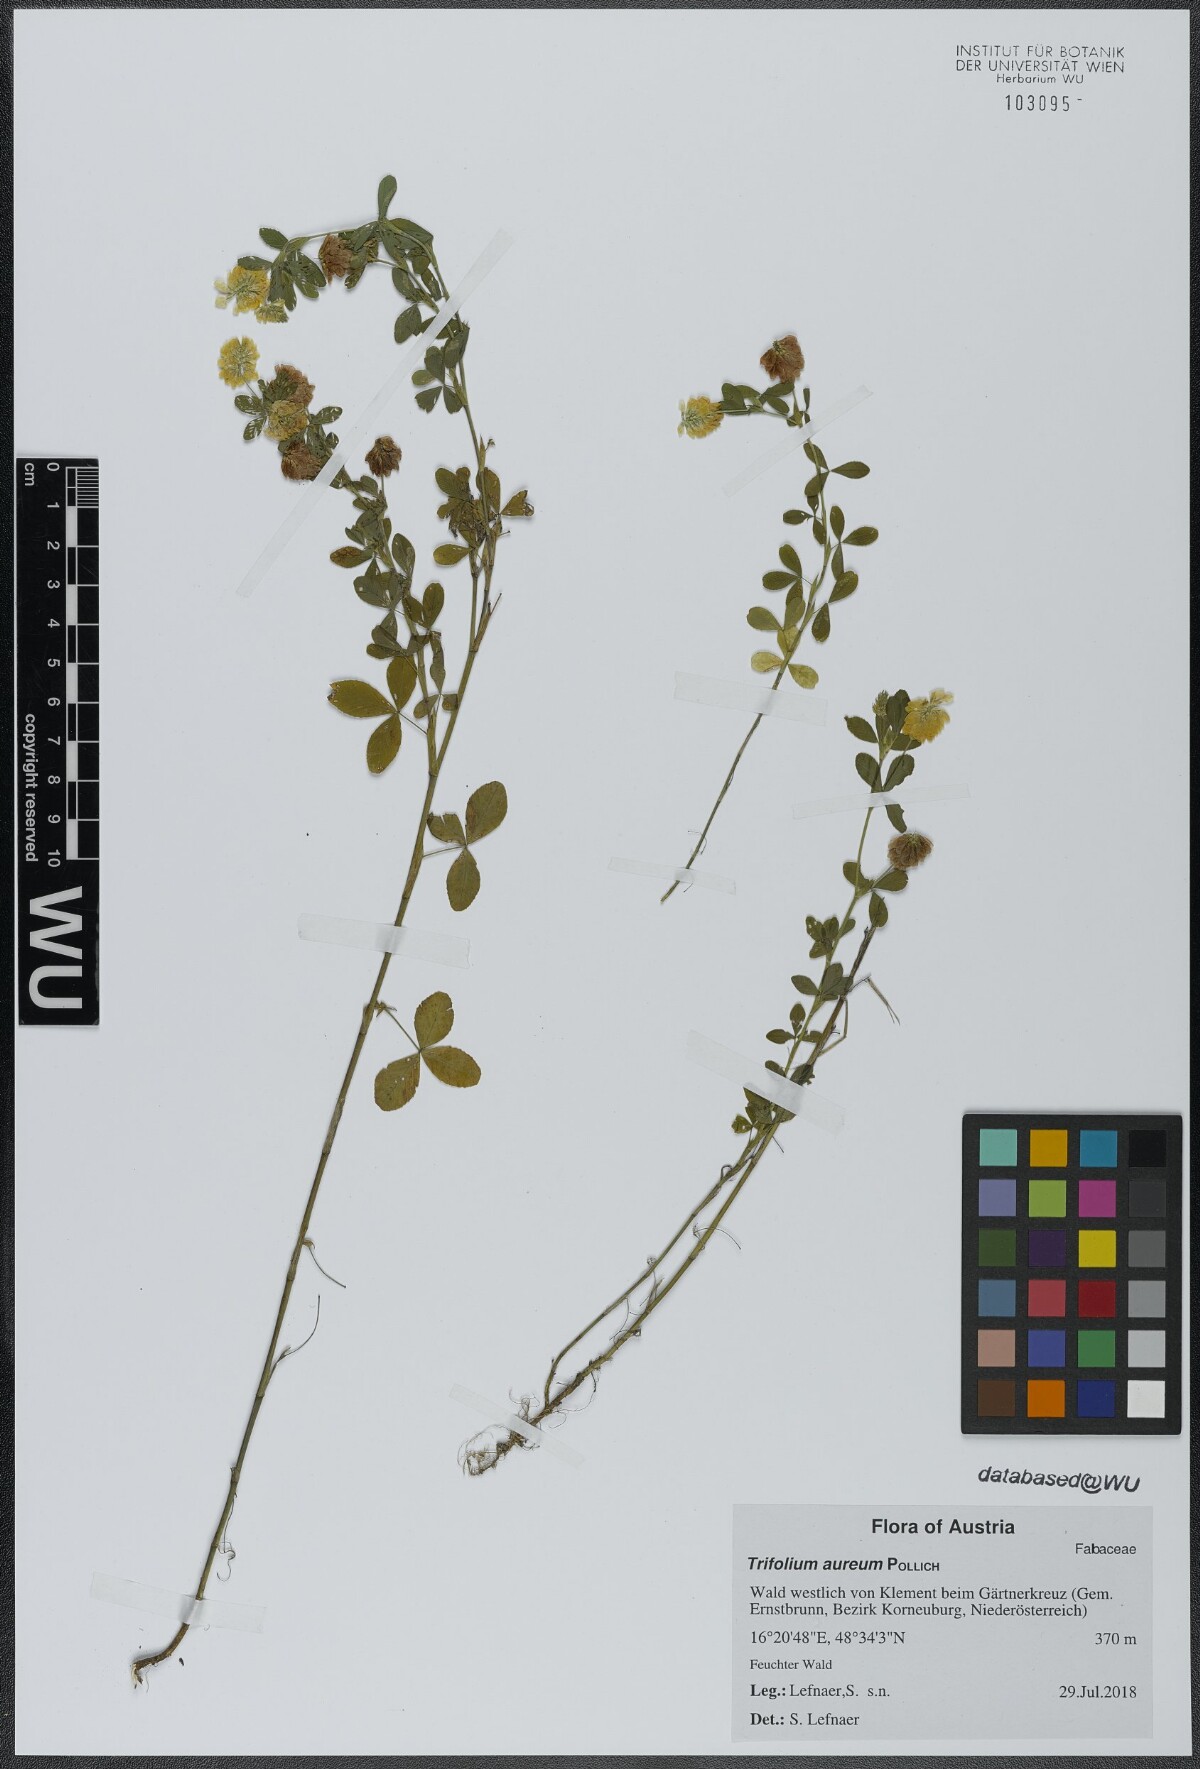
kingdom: Plantae
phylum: Tracheophyta
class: Magnoliopsida
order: Fabales
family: Fabaceae
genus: Trifolium
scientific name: Trifolium aureum
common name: Golden clover
